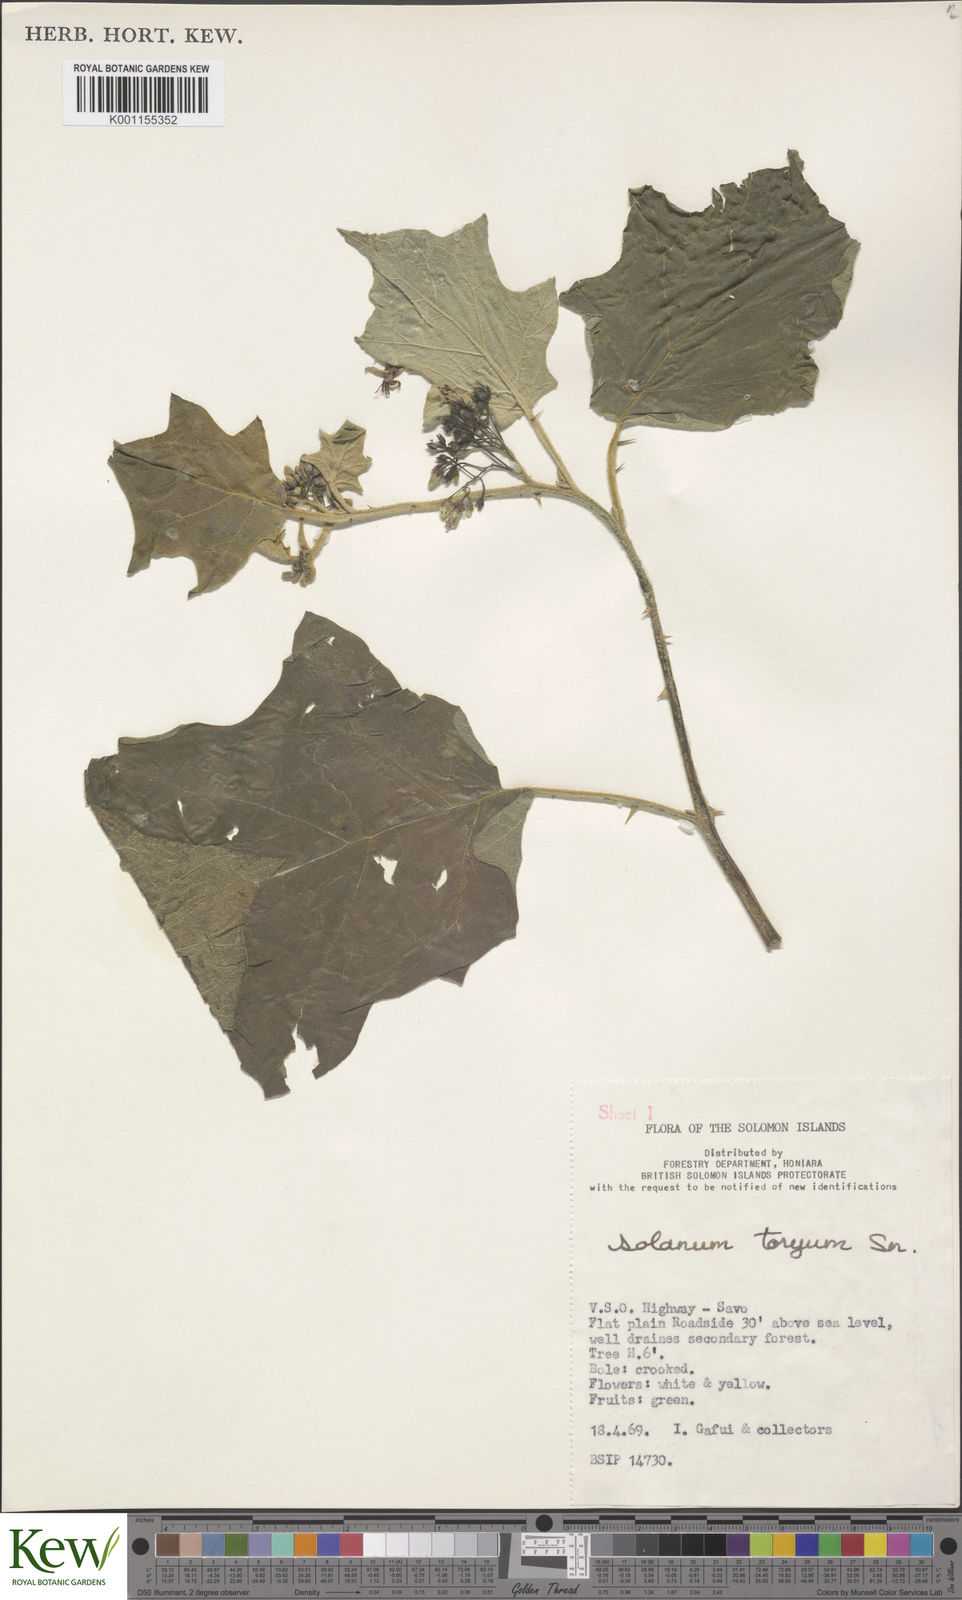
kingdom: Plantae
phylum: Tracheophyta
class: Magnoliopsida
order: Solanales
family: Solanaceae
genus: Solanum
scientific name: Solanum torvum
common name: Turkey berry
